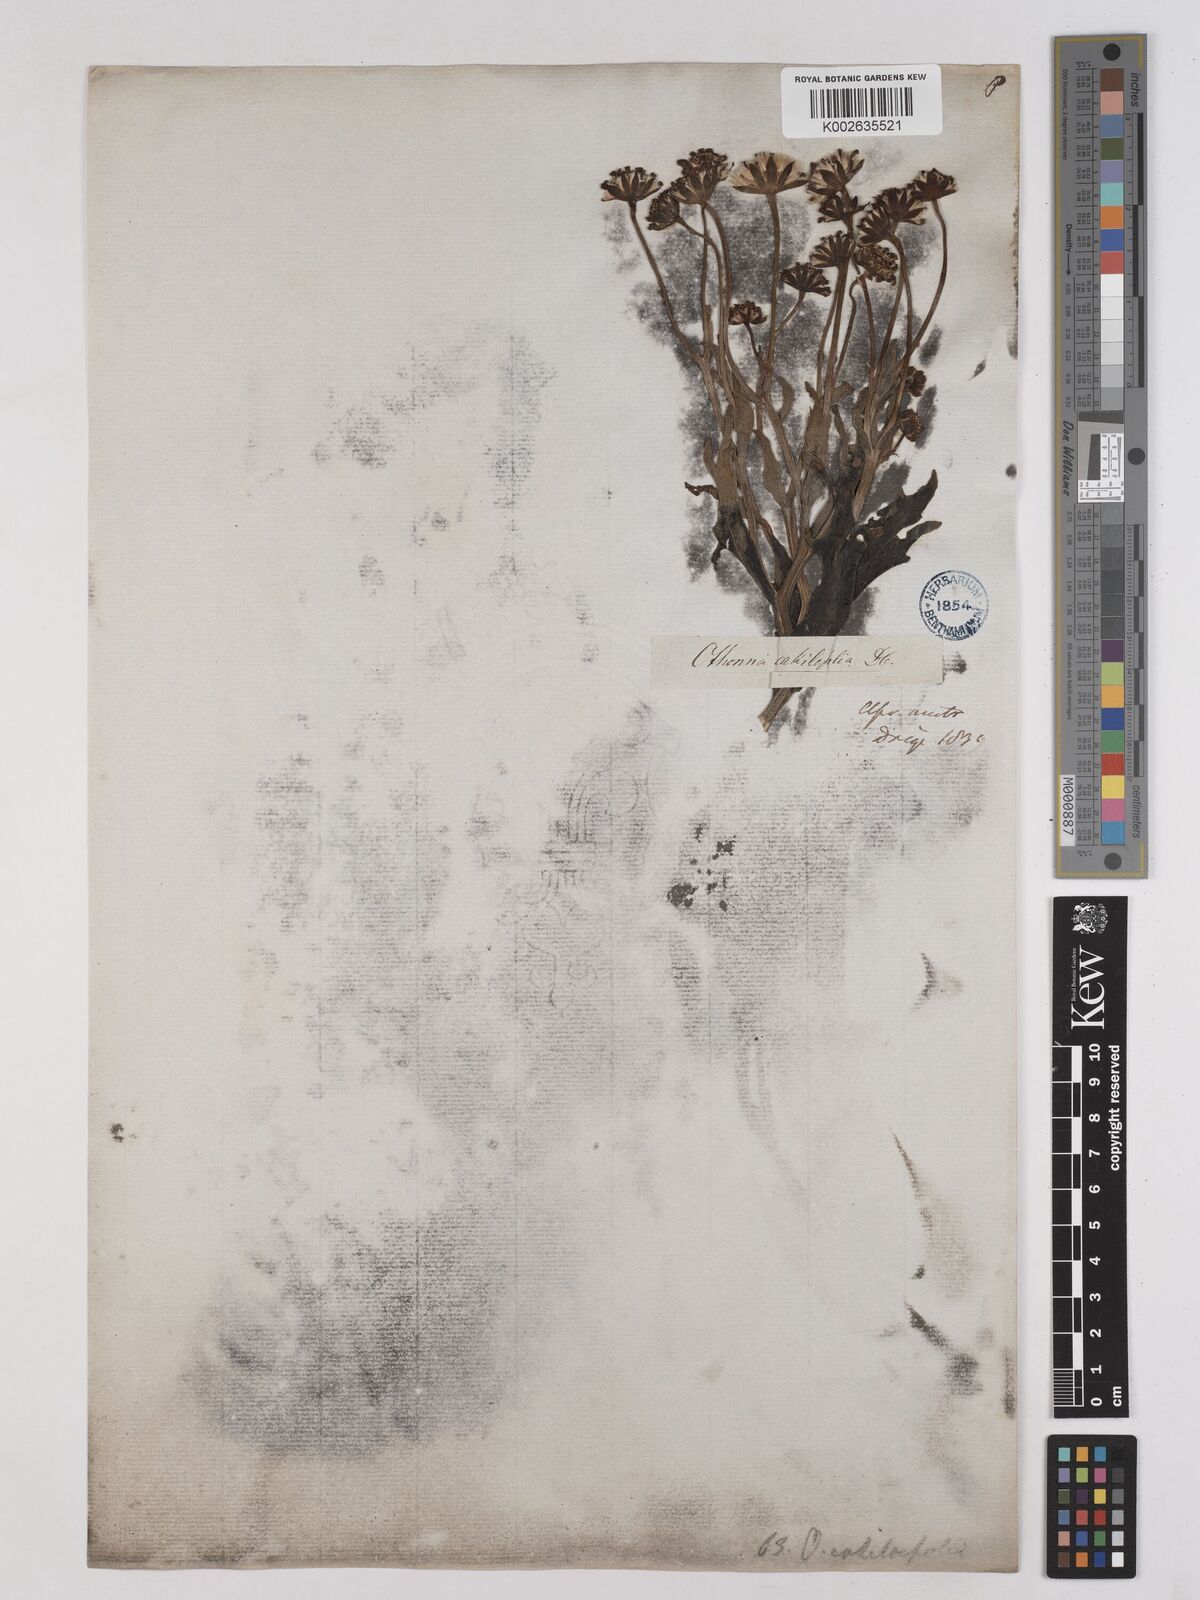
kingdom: Plantae
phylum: Tracheophyta
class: Magnoliopsida
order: Asterales
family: Asteraceae
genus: Othonna
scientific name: Othonna cakilefolia
